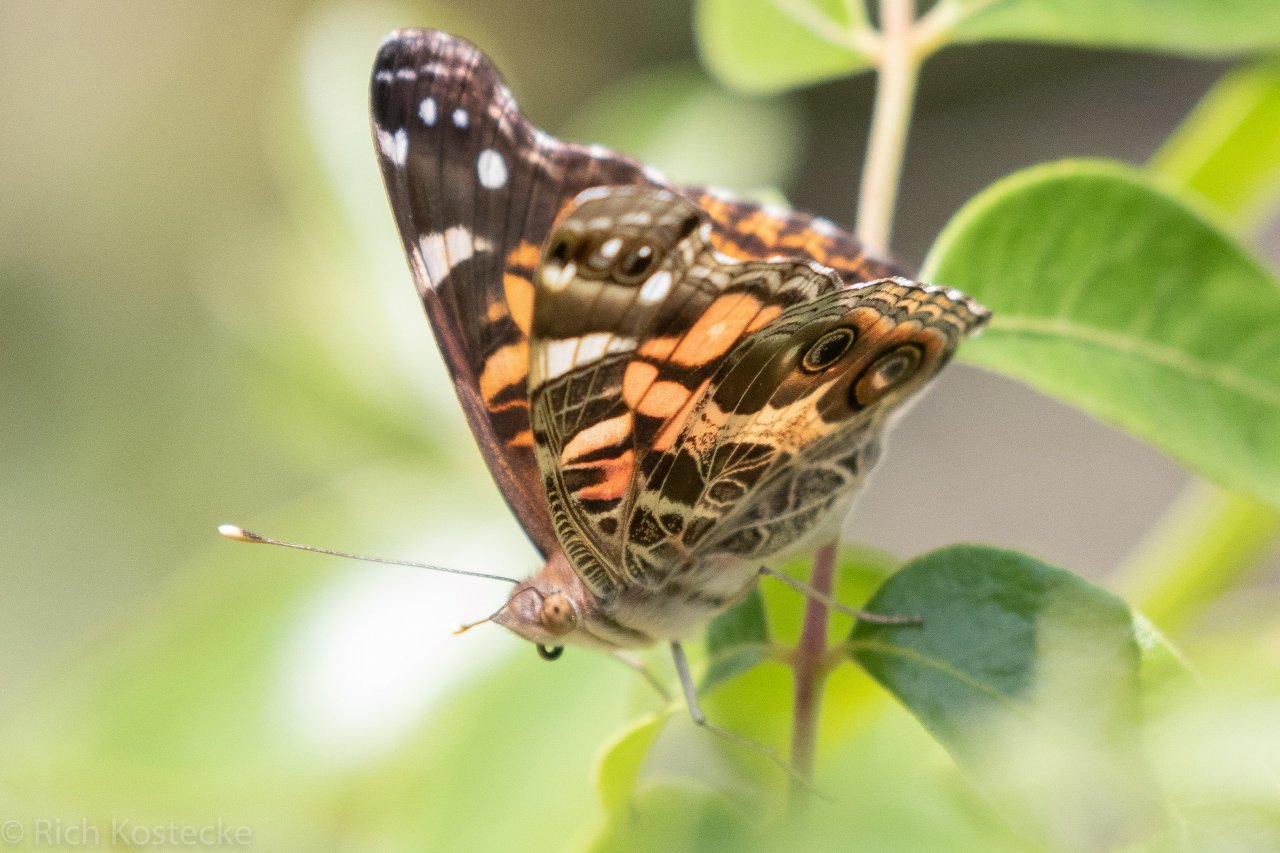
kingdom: Animalia
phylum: Arthropoda
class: Insecta
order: Lepidoptera
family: Nymphalidae
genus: Vanessa
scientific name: Vanessa virginiensis
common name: American Lady
